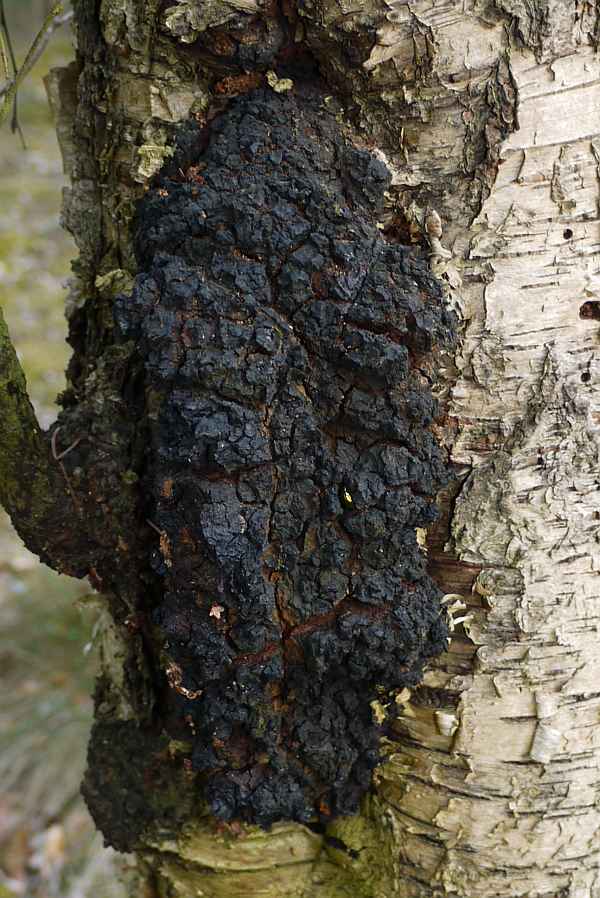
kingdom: Fungi
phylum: Basidiomycota
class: Agaricomycetes
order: Hymenochaetales
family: Hymenochaetaceae
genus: Inonotus
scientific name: Inonotus obliquus
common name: birke-spejlporesvamp
